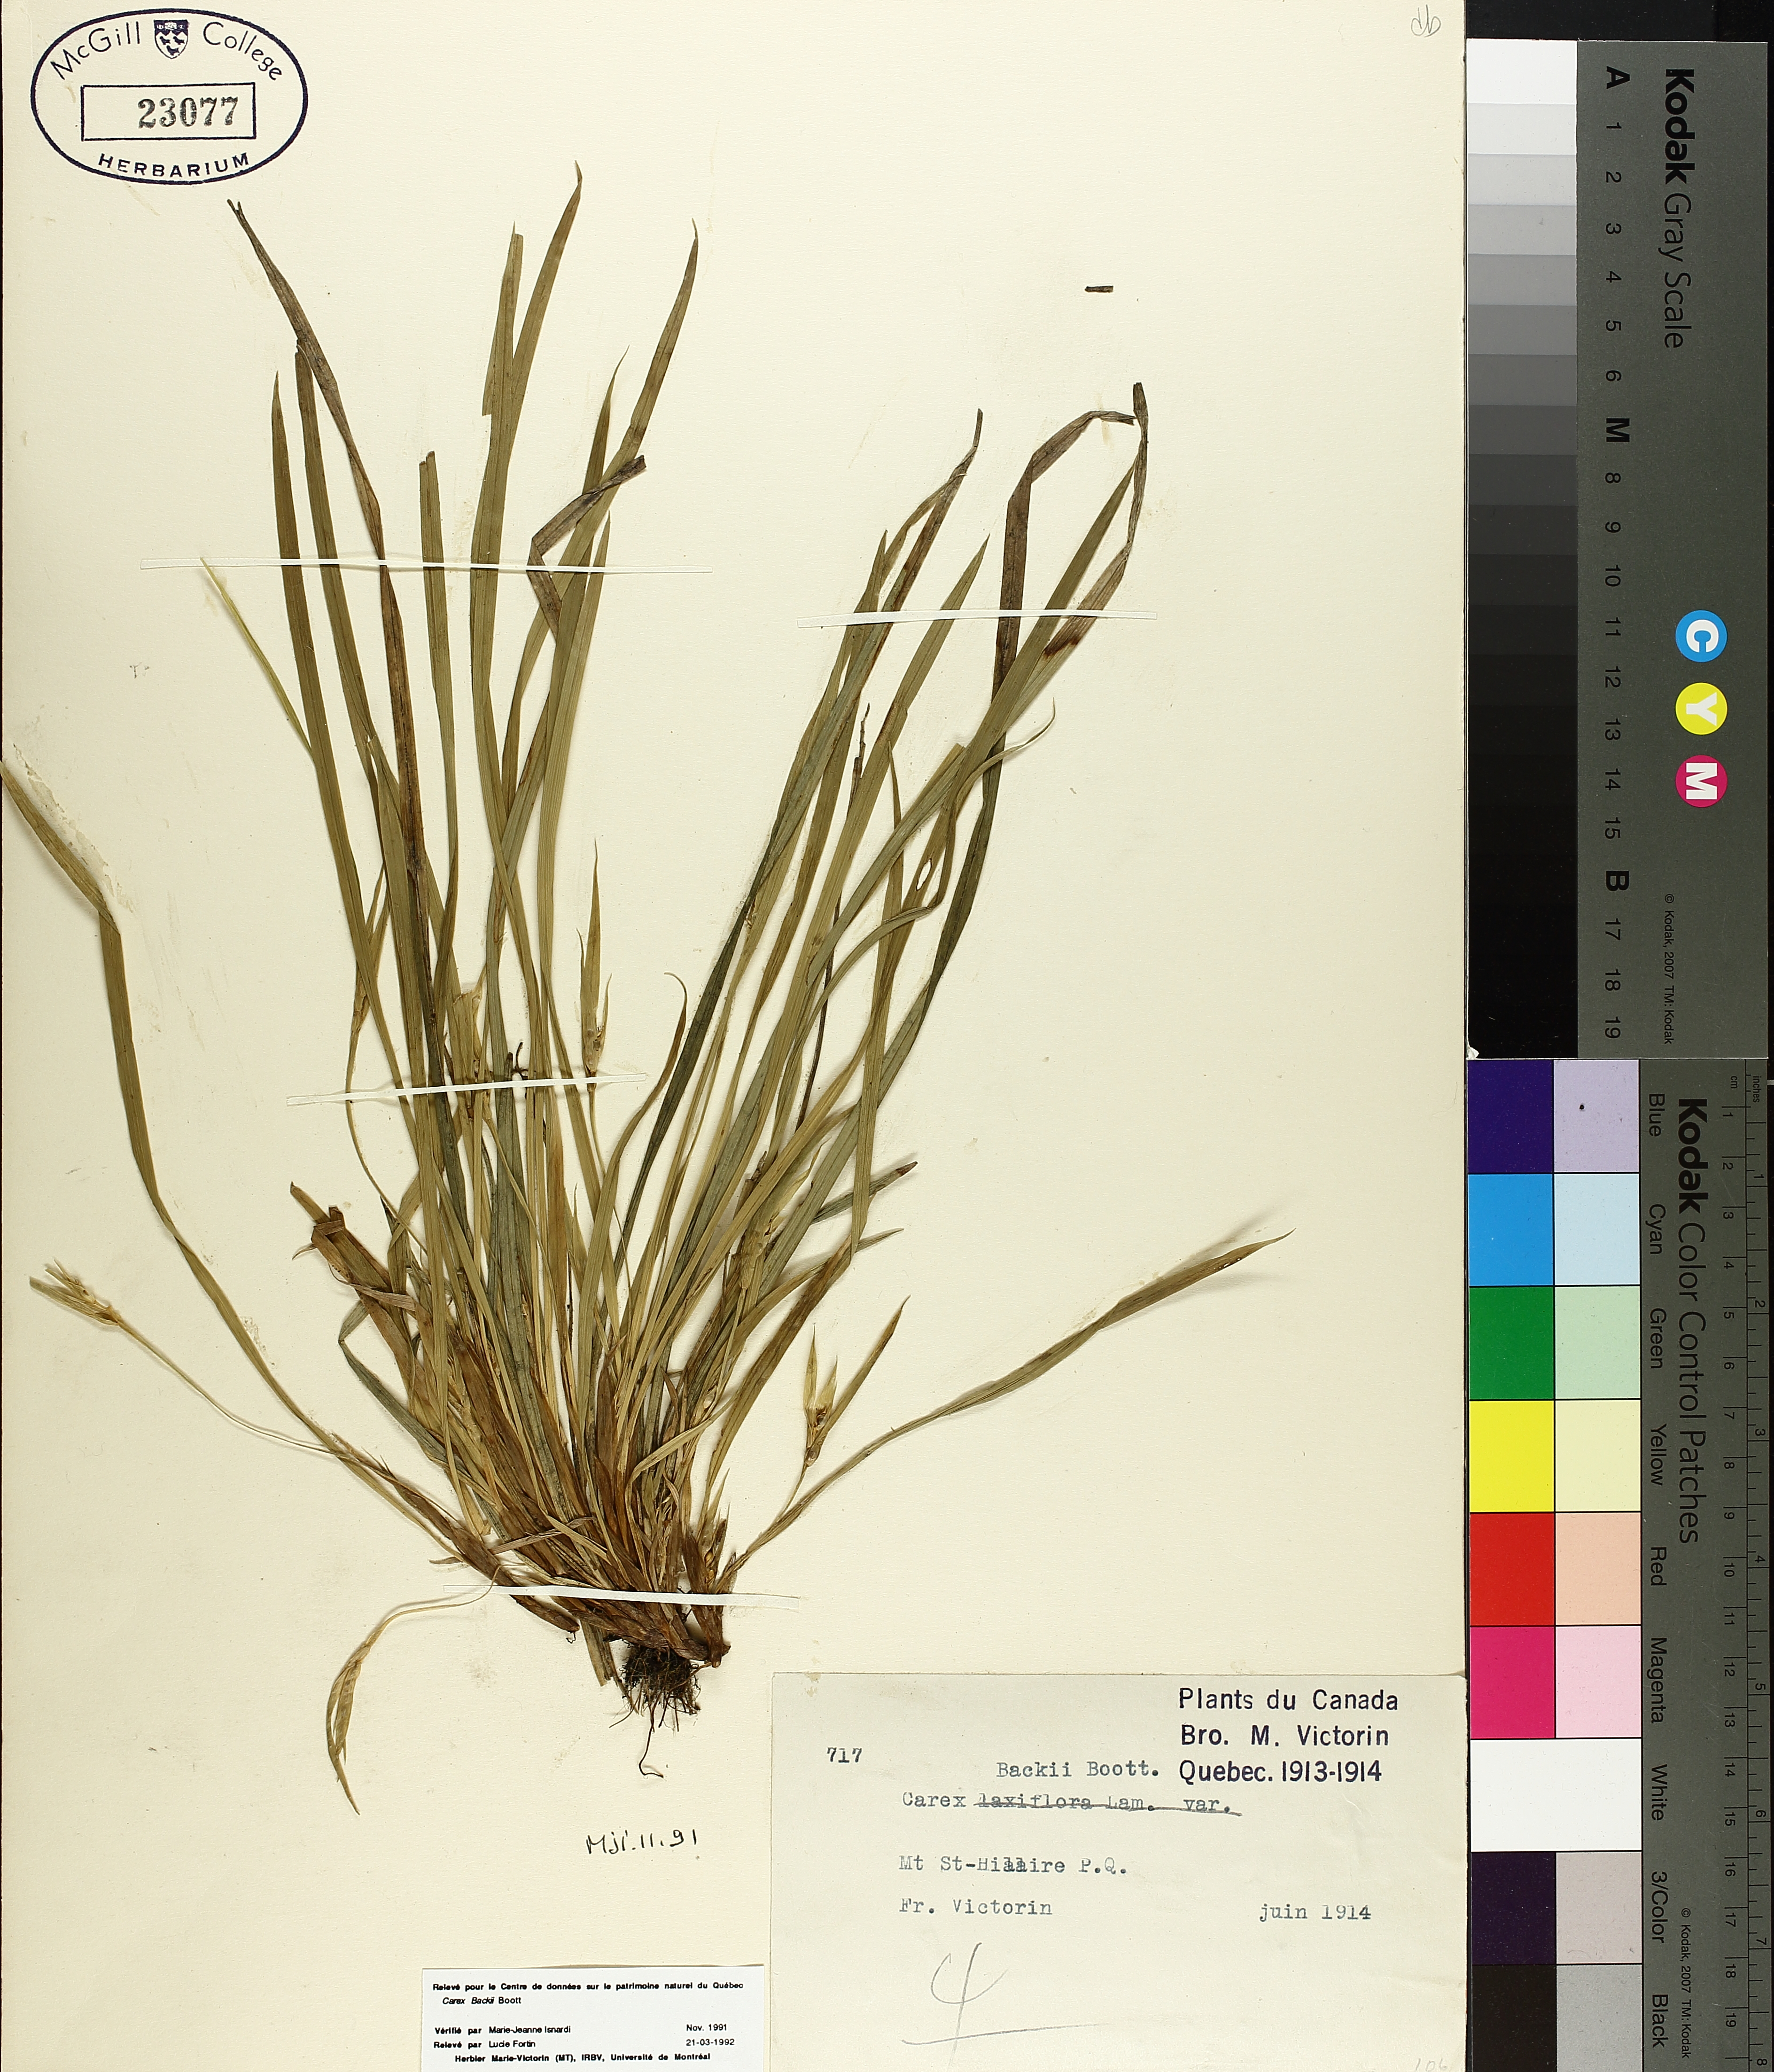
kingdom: Plantae
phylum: Tracheophyta
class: Liliopsida
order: Poales
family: Cyperaceae
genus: Carex
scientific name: Carex backii
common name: Back's sedge
